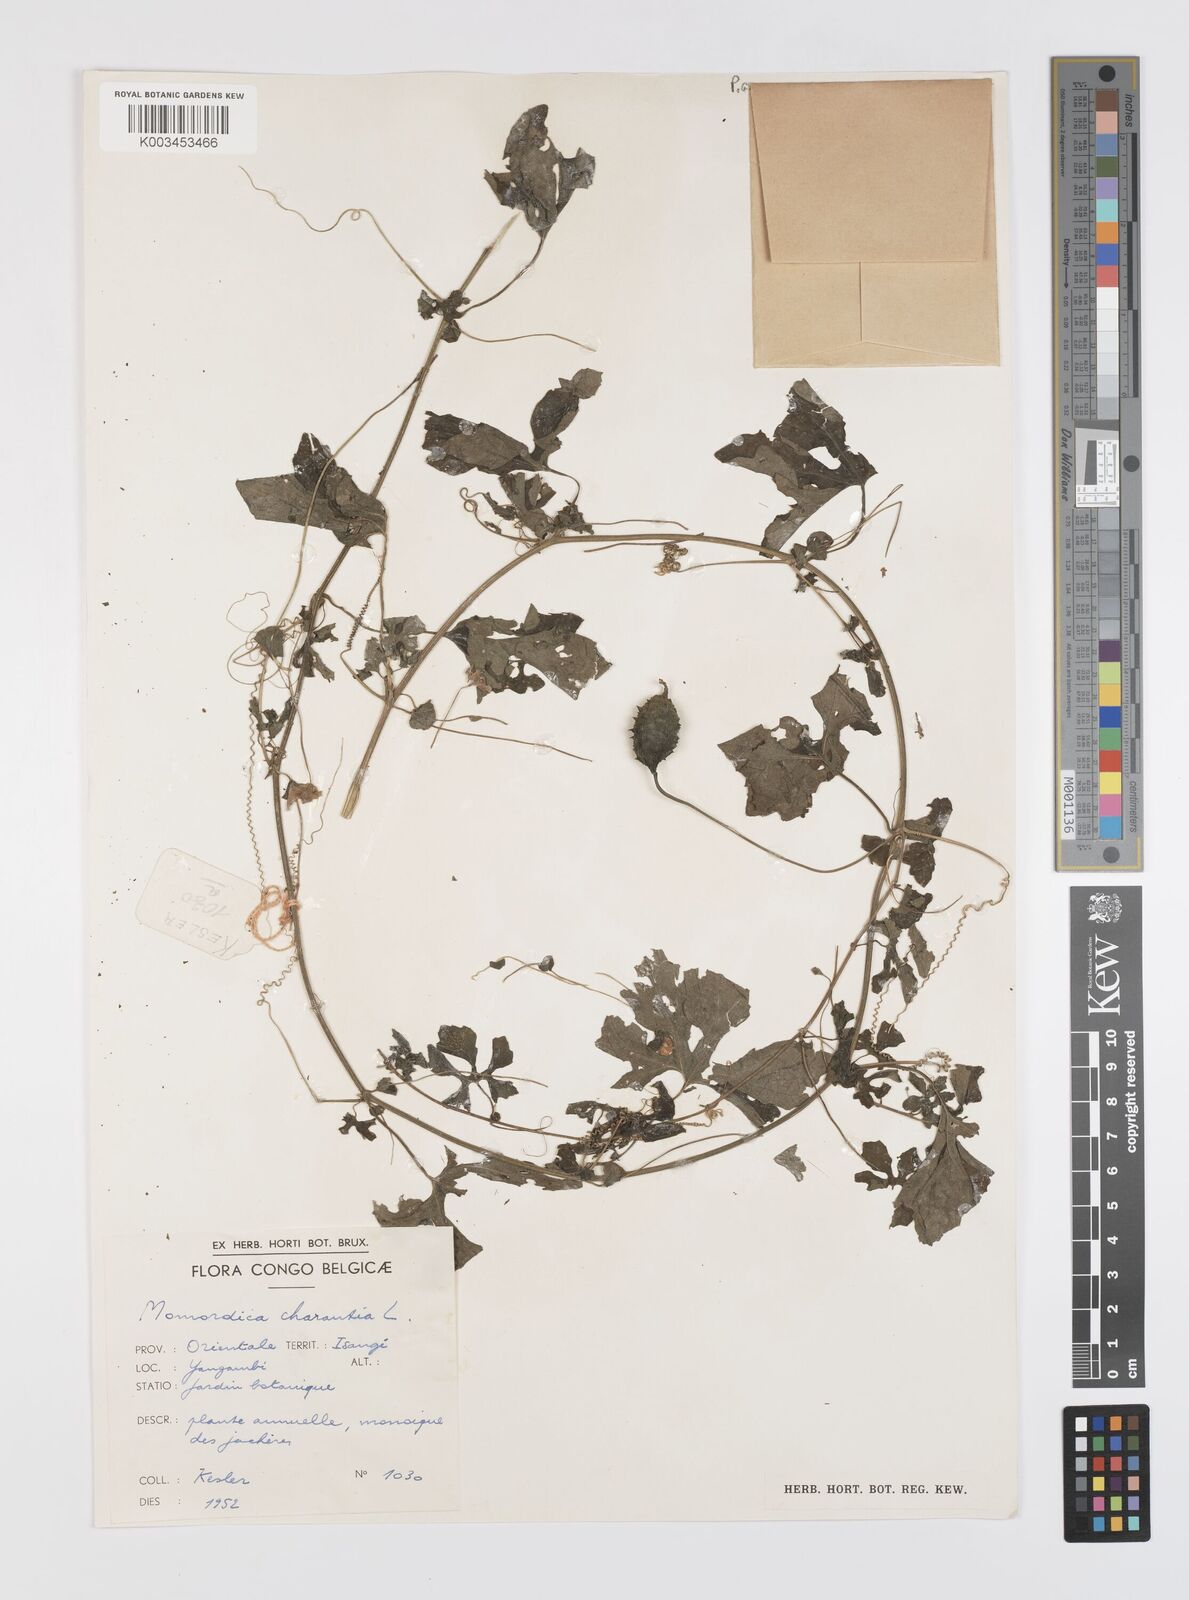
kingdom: Plantae
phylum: Tracheophyta
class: Magnoliopsida
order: Cucurbitales
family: Cucurbitaceae
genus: Momordica
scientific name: Momordica charantia
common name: Balsampear
